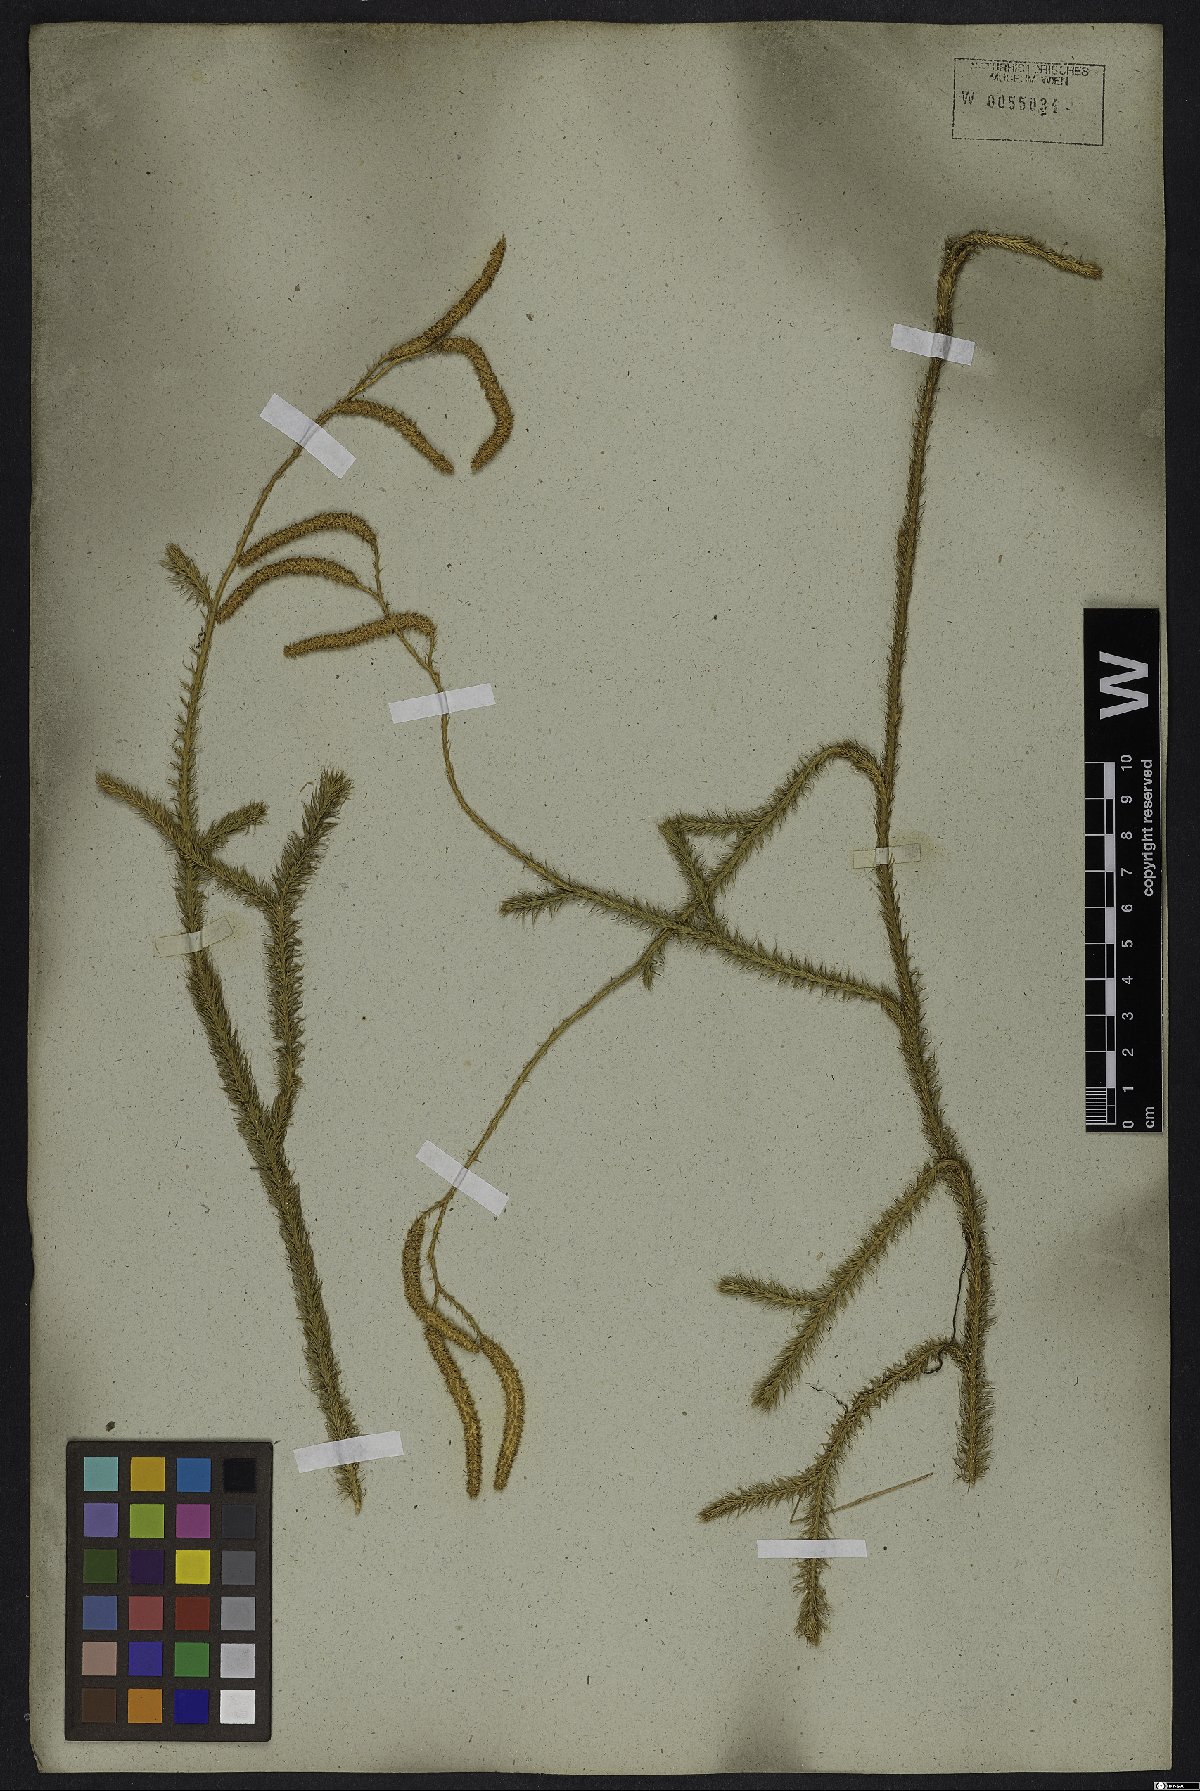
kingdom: Plantae
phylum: Tracheophyta
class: Lycopodiopsida
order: Lycopodiales
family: Lycopodiaceae
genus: Lycopodium
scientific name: Lycopodium clavatum
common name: Stag's-horn clubmoss
